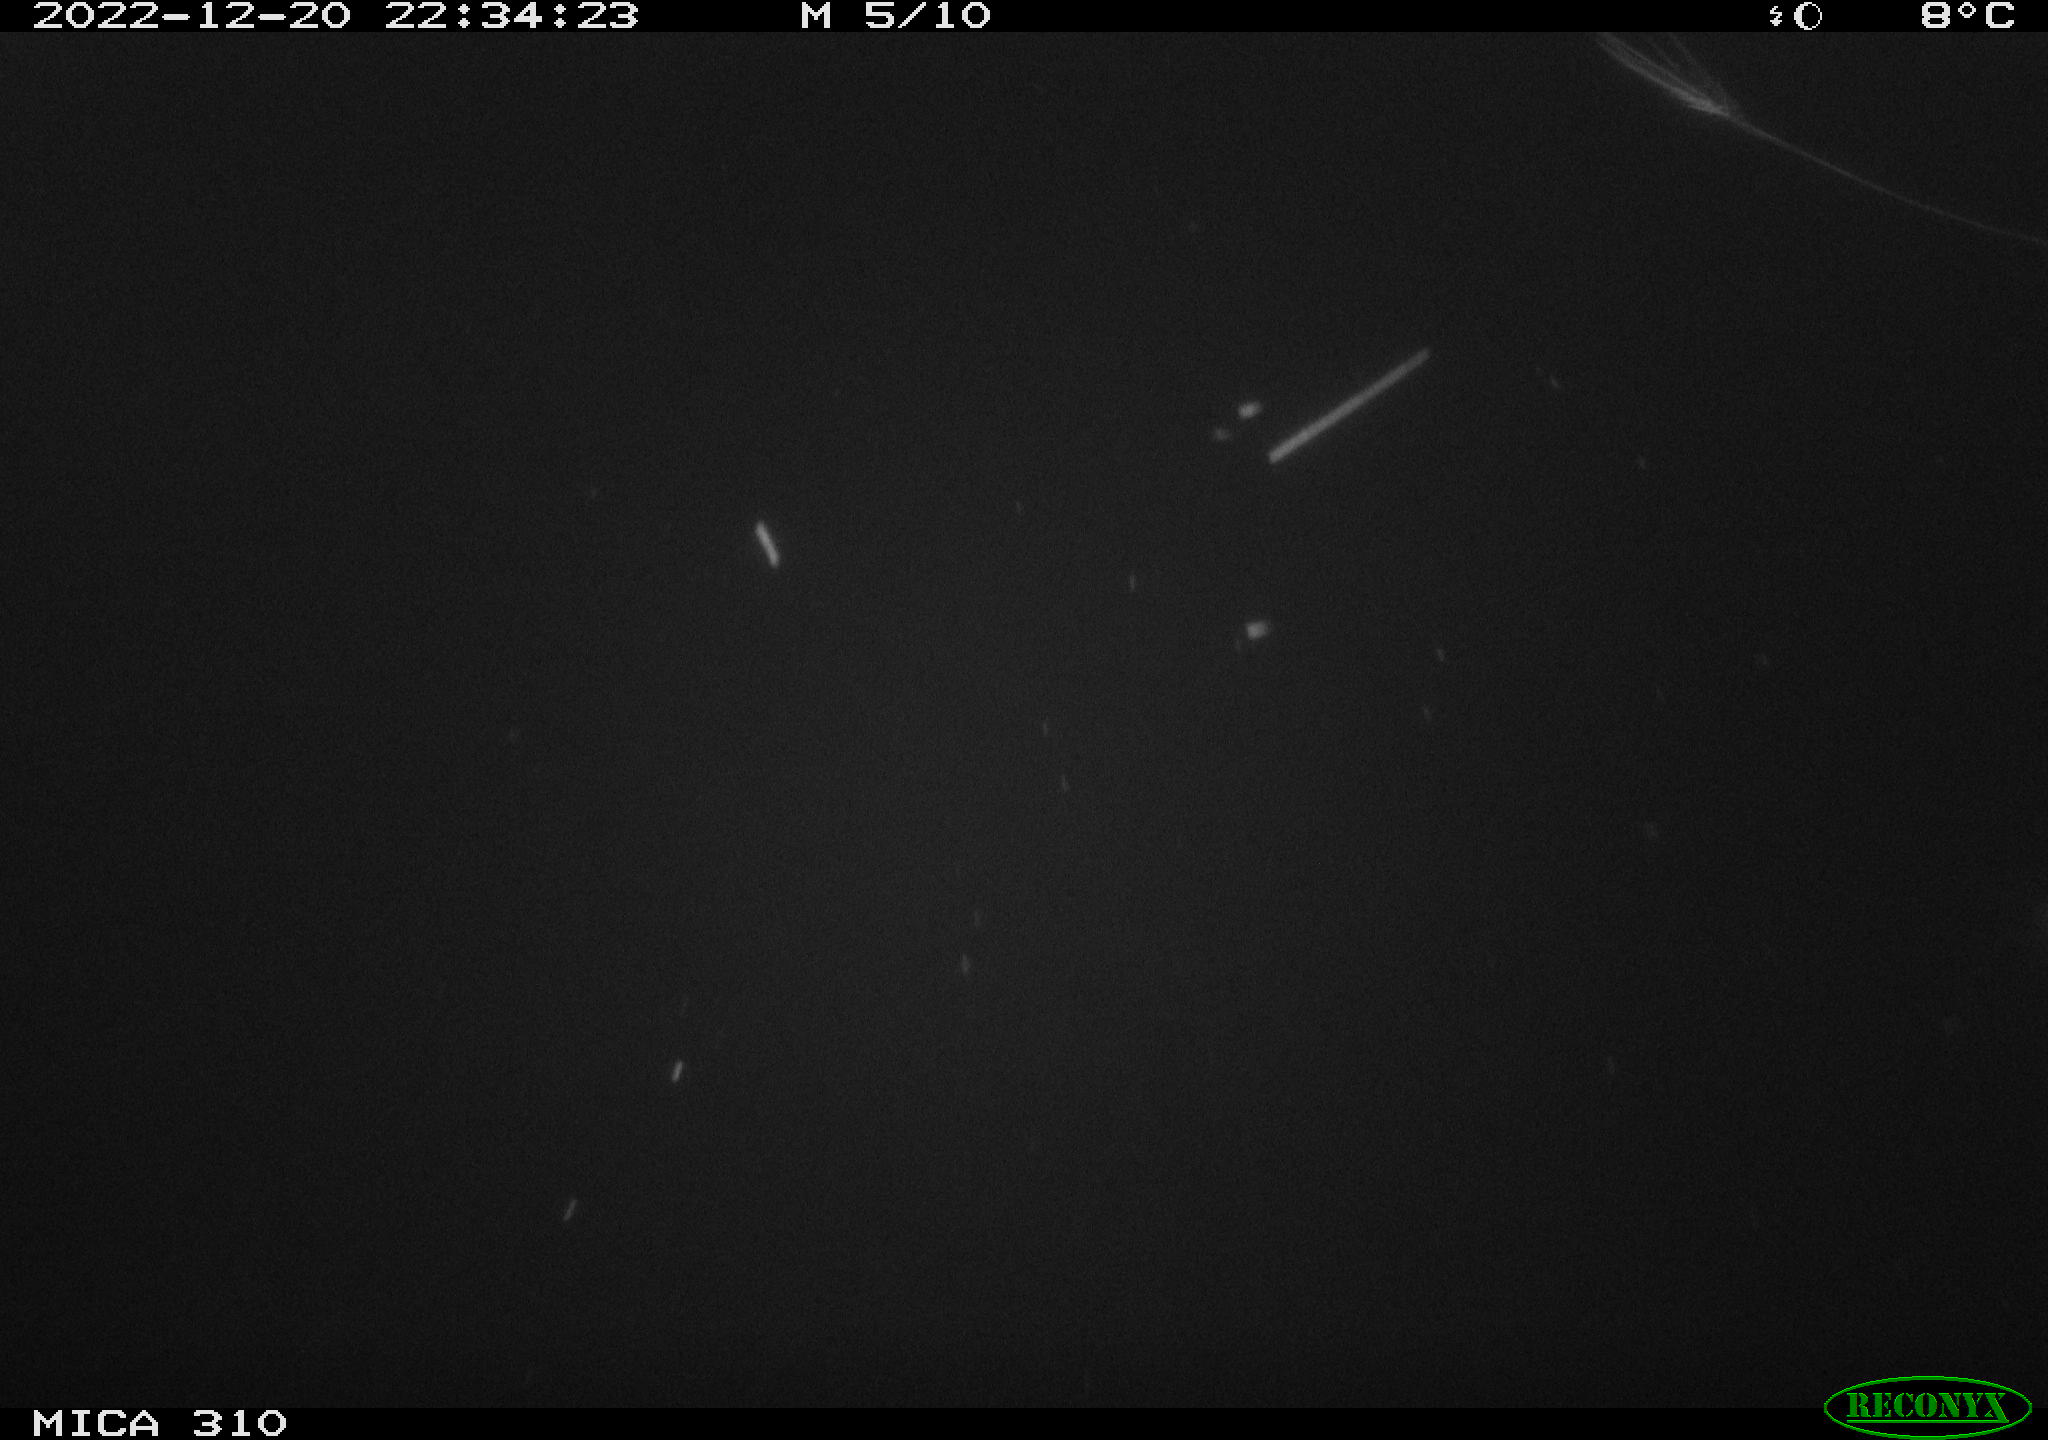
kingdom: Animalia
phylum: Chordata
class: Mammalia
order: Rodentia
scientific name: Rodentia
